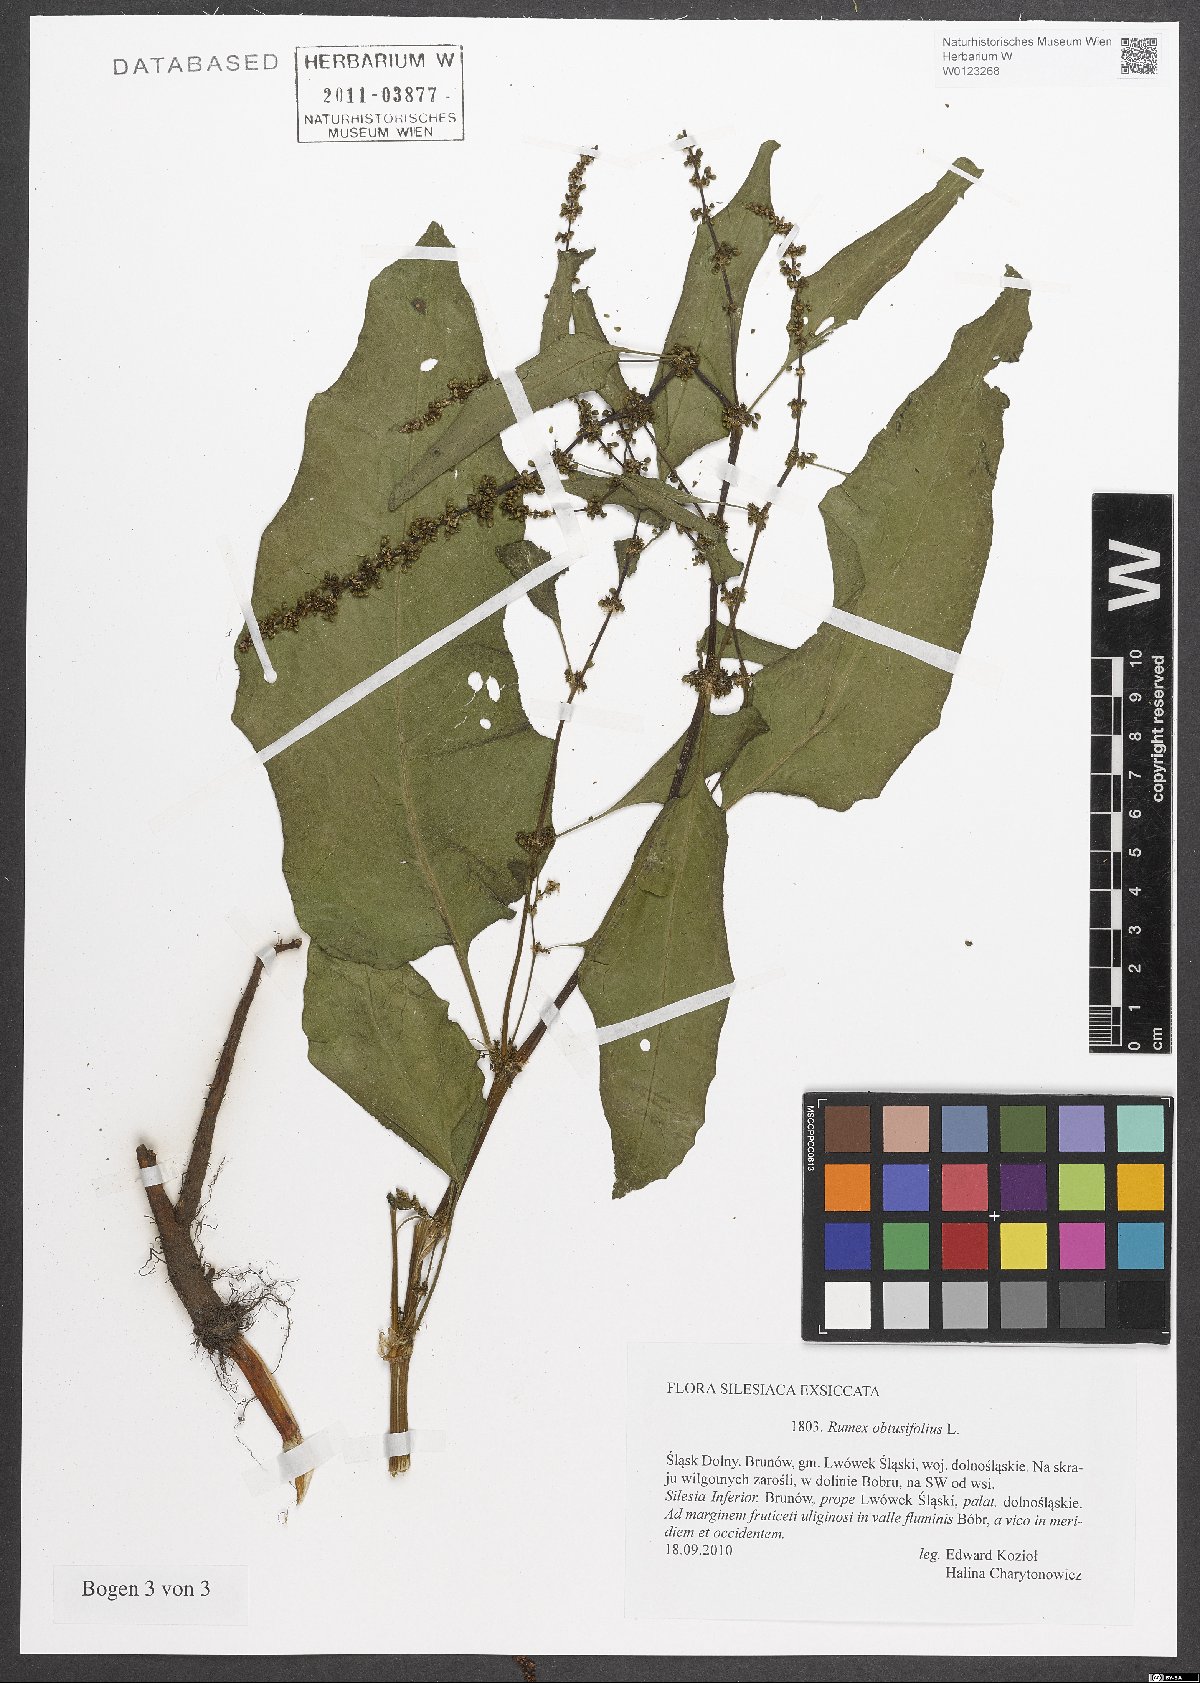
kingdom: Plantae
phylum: Tracheophyta
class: Magnoliopsida
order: Caryophyllales
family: Polygonaceae
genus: Rumex
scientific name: Rumex obtusifolius
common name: Bitter dock
